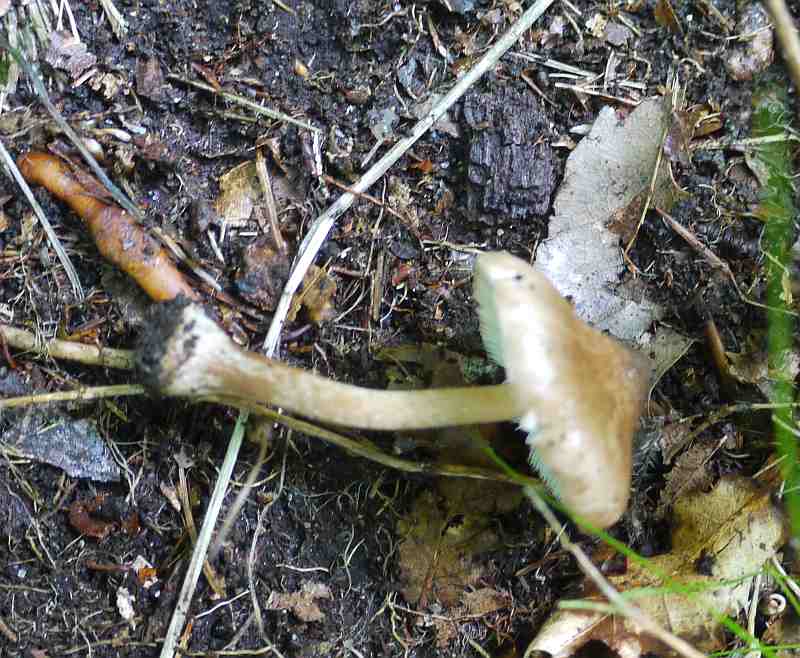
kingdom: Fungi
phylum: Basidiomycota
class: Agaricomycetes
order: Agaricales
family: Inocybaceae
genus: Inocybe
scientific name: Inocybe napipes
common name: roeknoldet trævlhat
